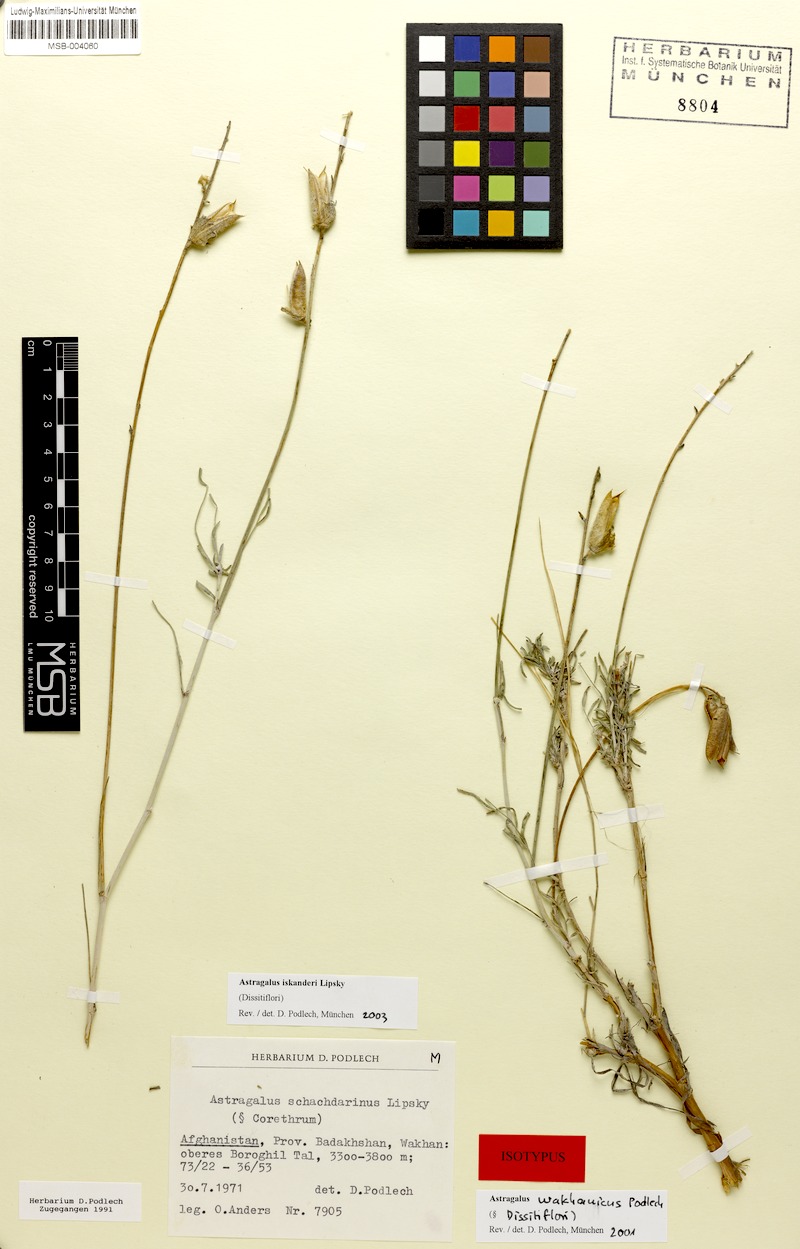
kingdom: Plantae
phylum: Tracheophyta
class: Magnoliopsida
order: Fabales
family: Fabaceae
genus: Astragalus
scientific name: Astragalus iskanderi
